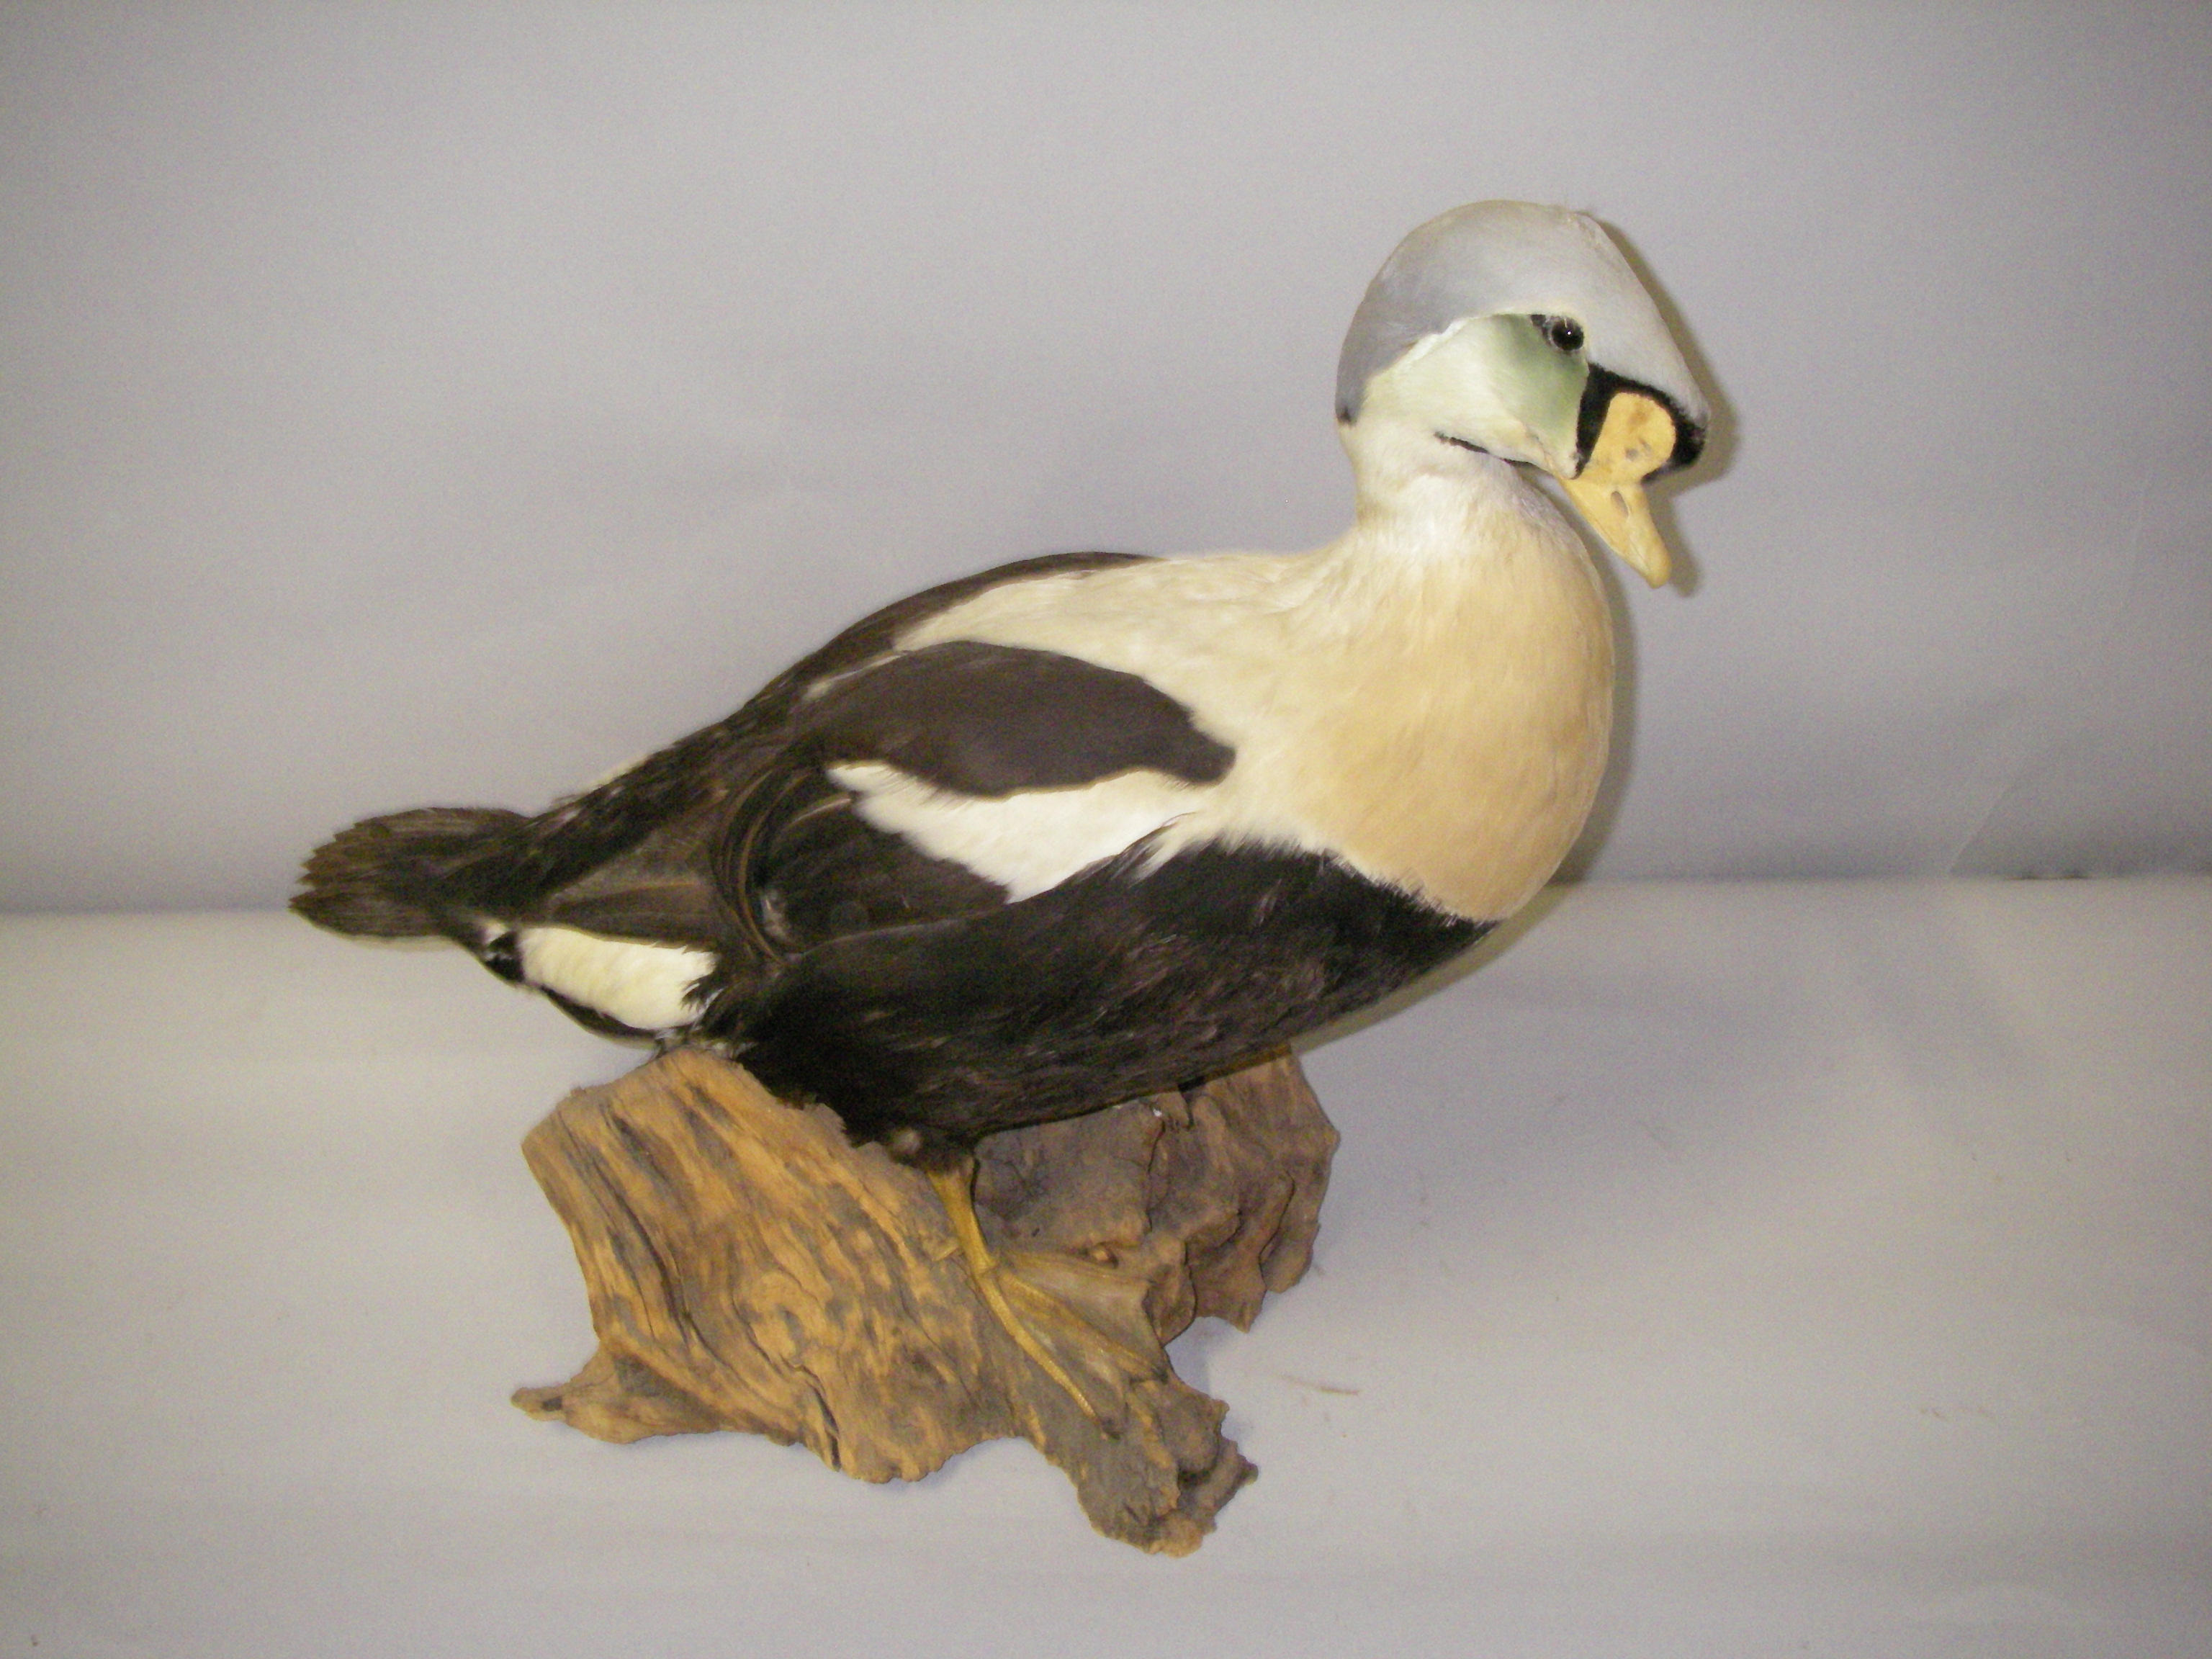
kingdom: Animalia
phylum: Chordata
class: Aves
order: Anseriformes
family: Anatidae
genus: Somateria
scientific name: Somateria spectabilis
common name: King eider
